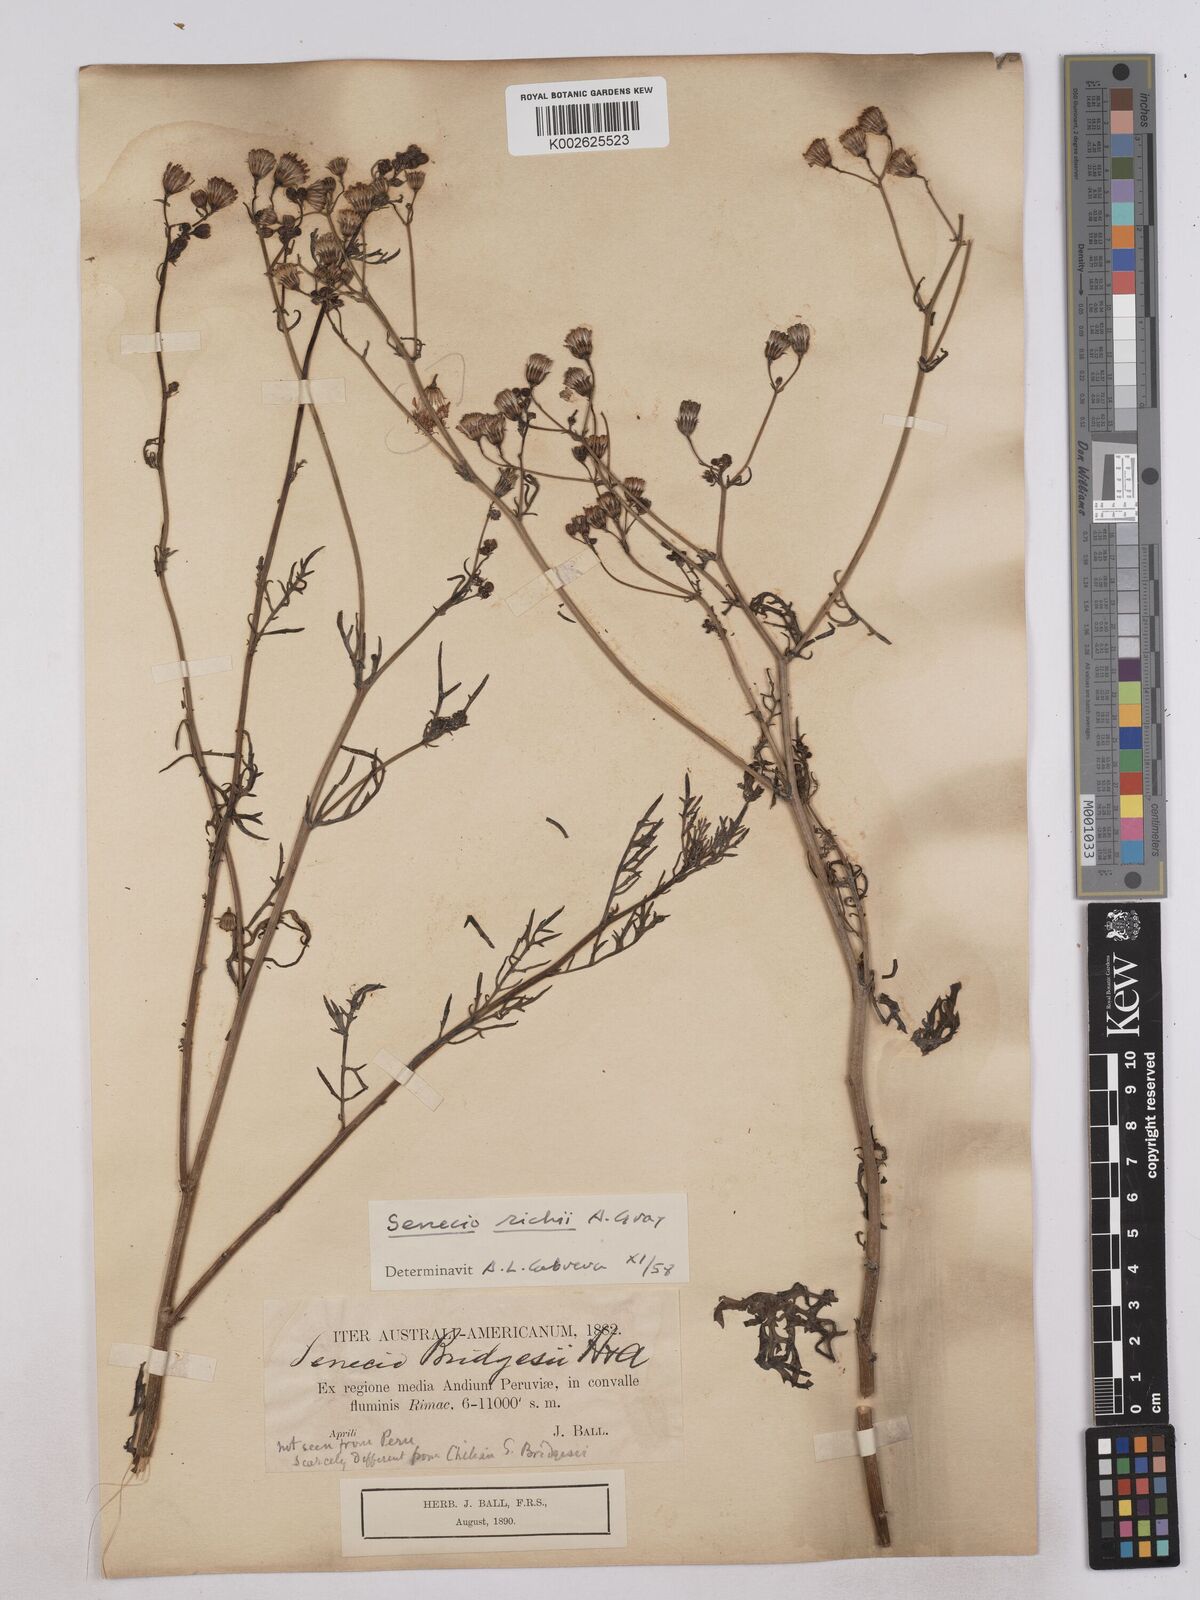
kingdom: Plantae
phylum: Tracheophyta
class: Magnoliopsida
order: Asterales
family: Asteraceae
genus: Senecio
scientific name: Senecio richii
